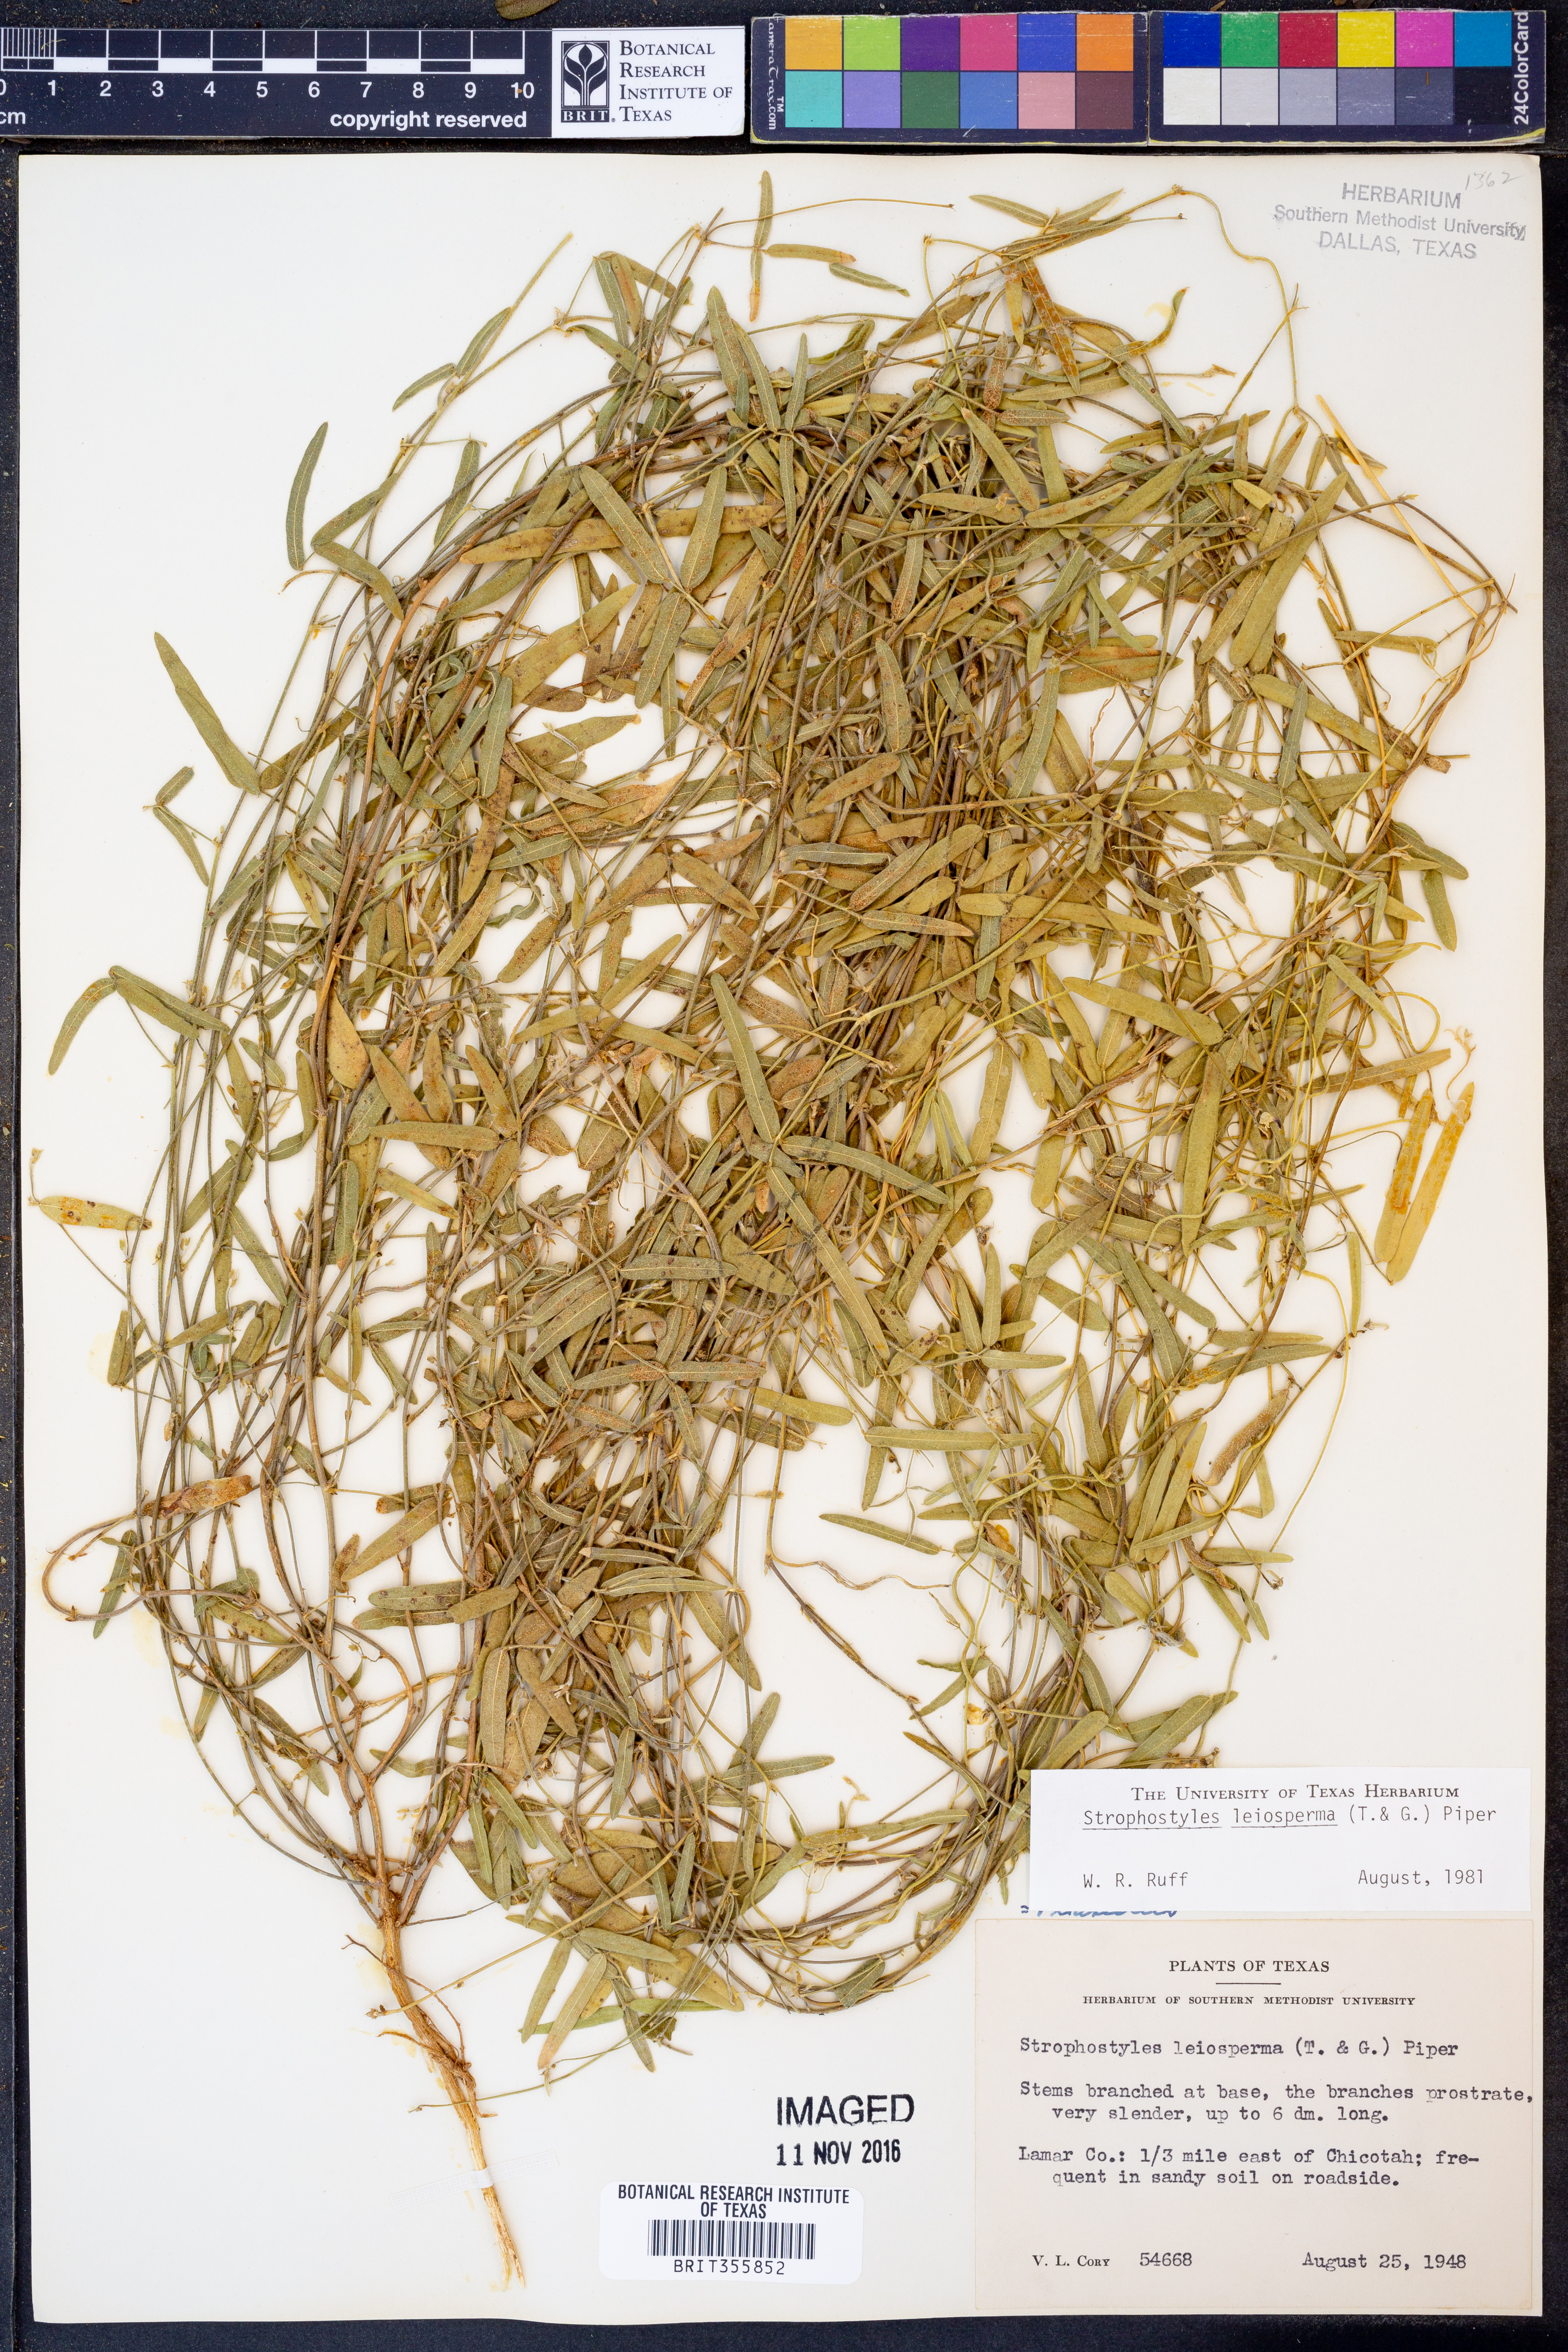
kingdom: Plantae
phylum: Tracheophyta
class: Magnoliopsida
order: Fabales
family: Fabaceae
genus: Strophostyles
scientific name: Strophostyles leiosperma
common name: Smooth-seed wild bean
